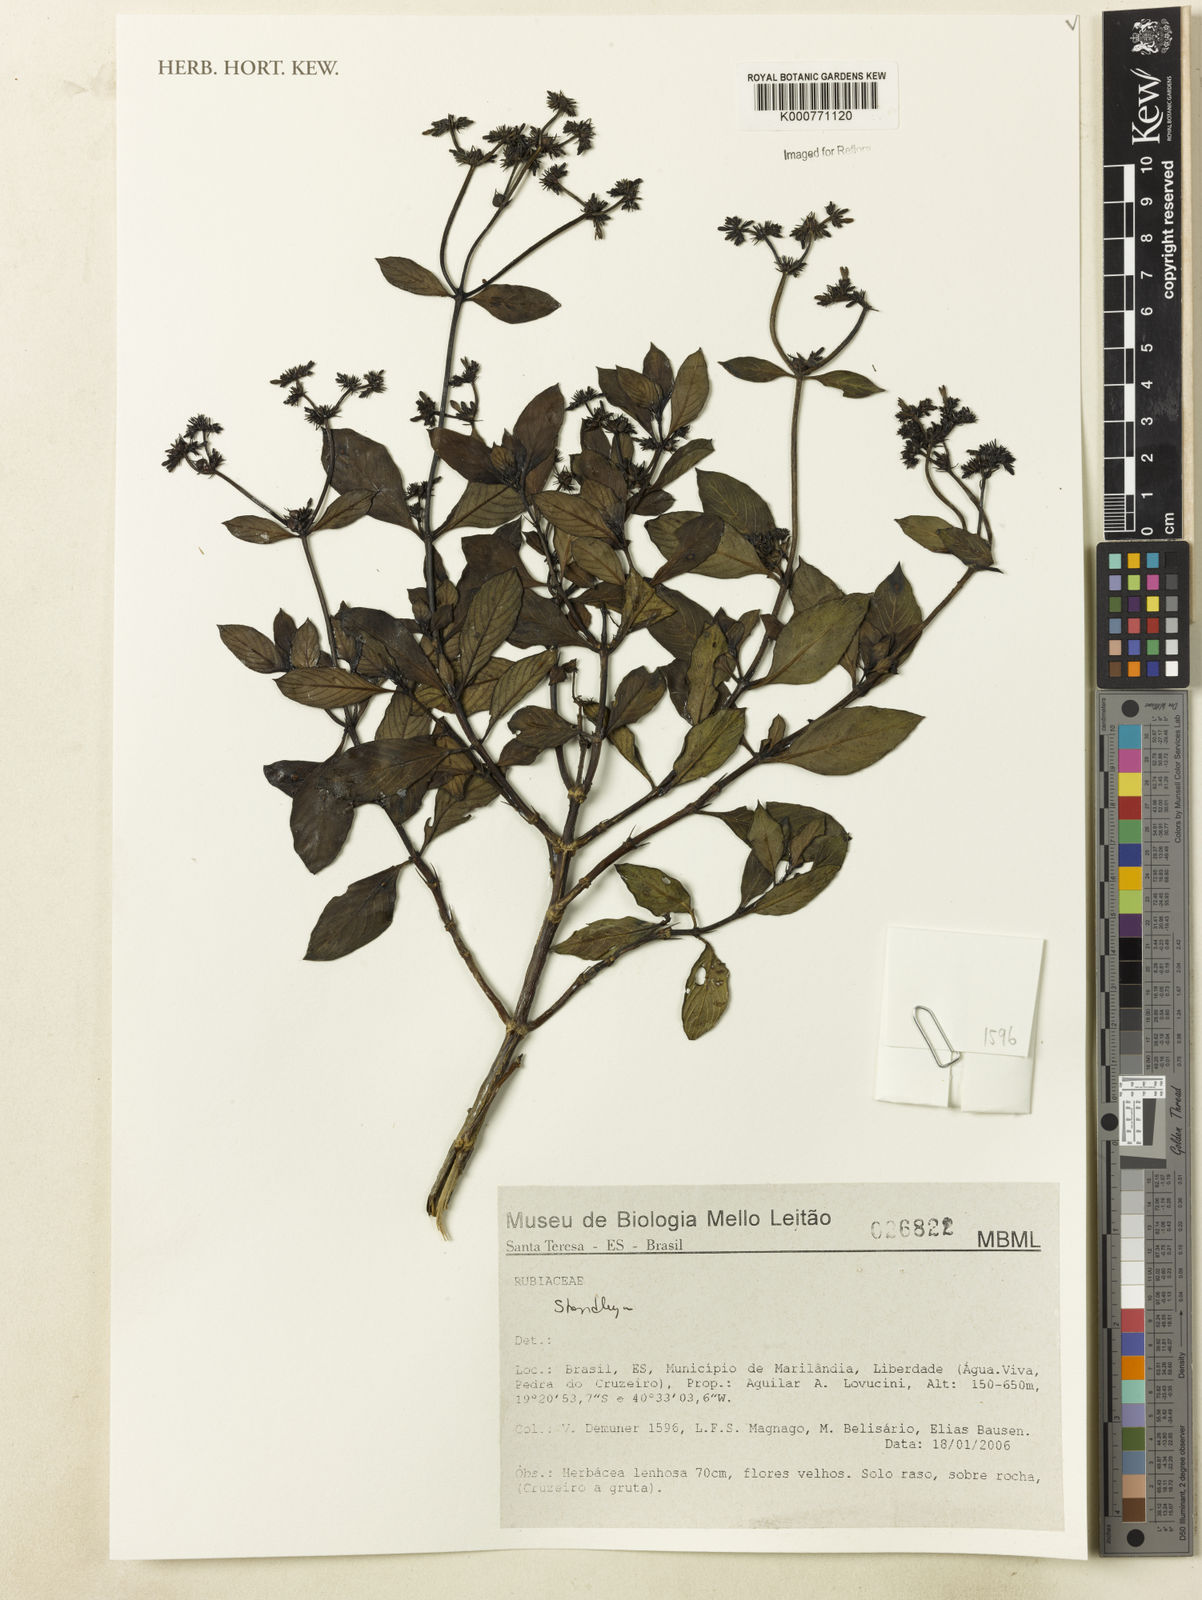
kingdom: Plantae
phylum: Tracheophyta
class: Magnoliopsida
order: Gentianales
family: Rubiaceae
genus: Standleya
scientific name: Standleya
